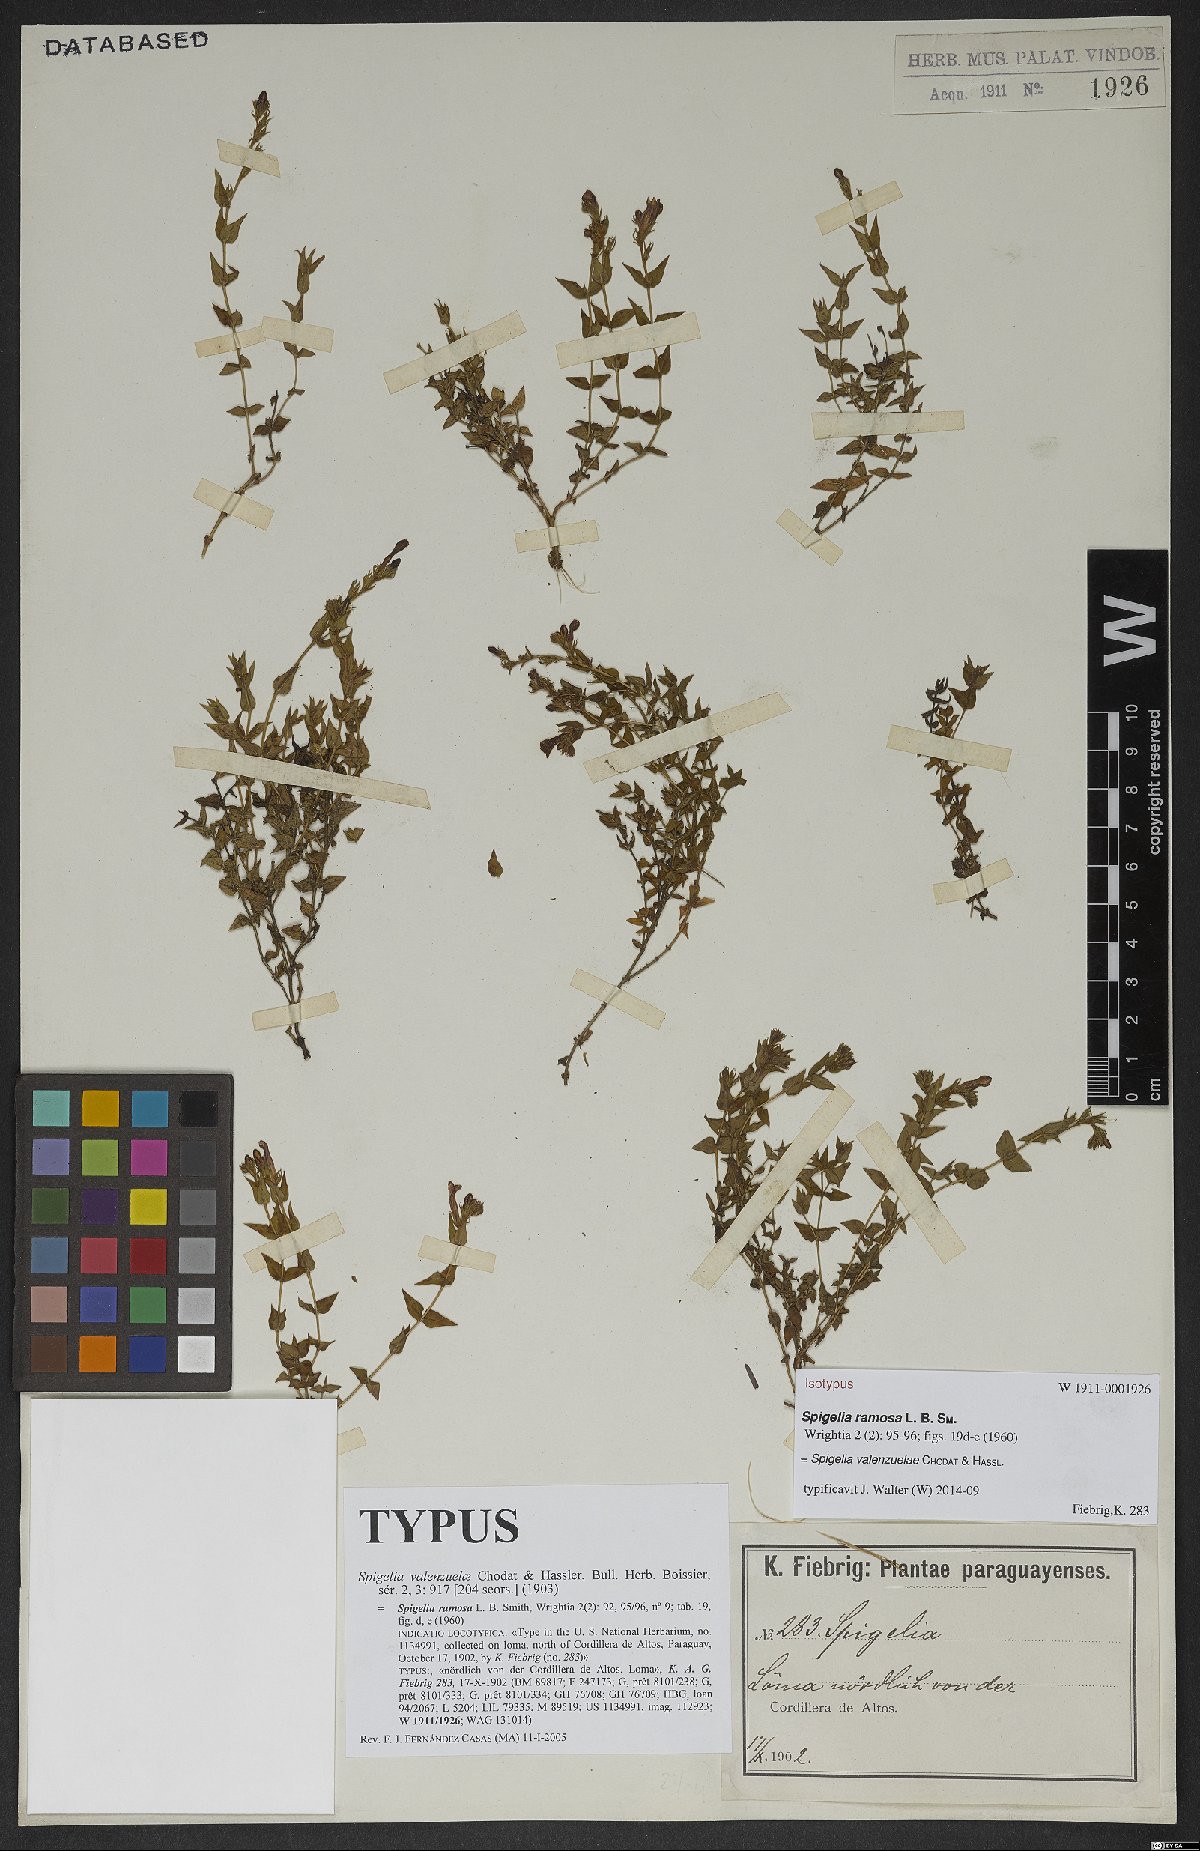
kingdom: Plantae
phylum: Tracheophyta
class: Magnoliopsida
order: Gentianales
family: Loganiaceae
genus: Spigelia
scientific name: Spigelia valenzuelae
